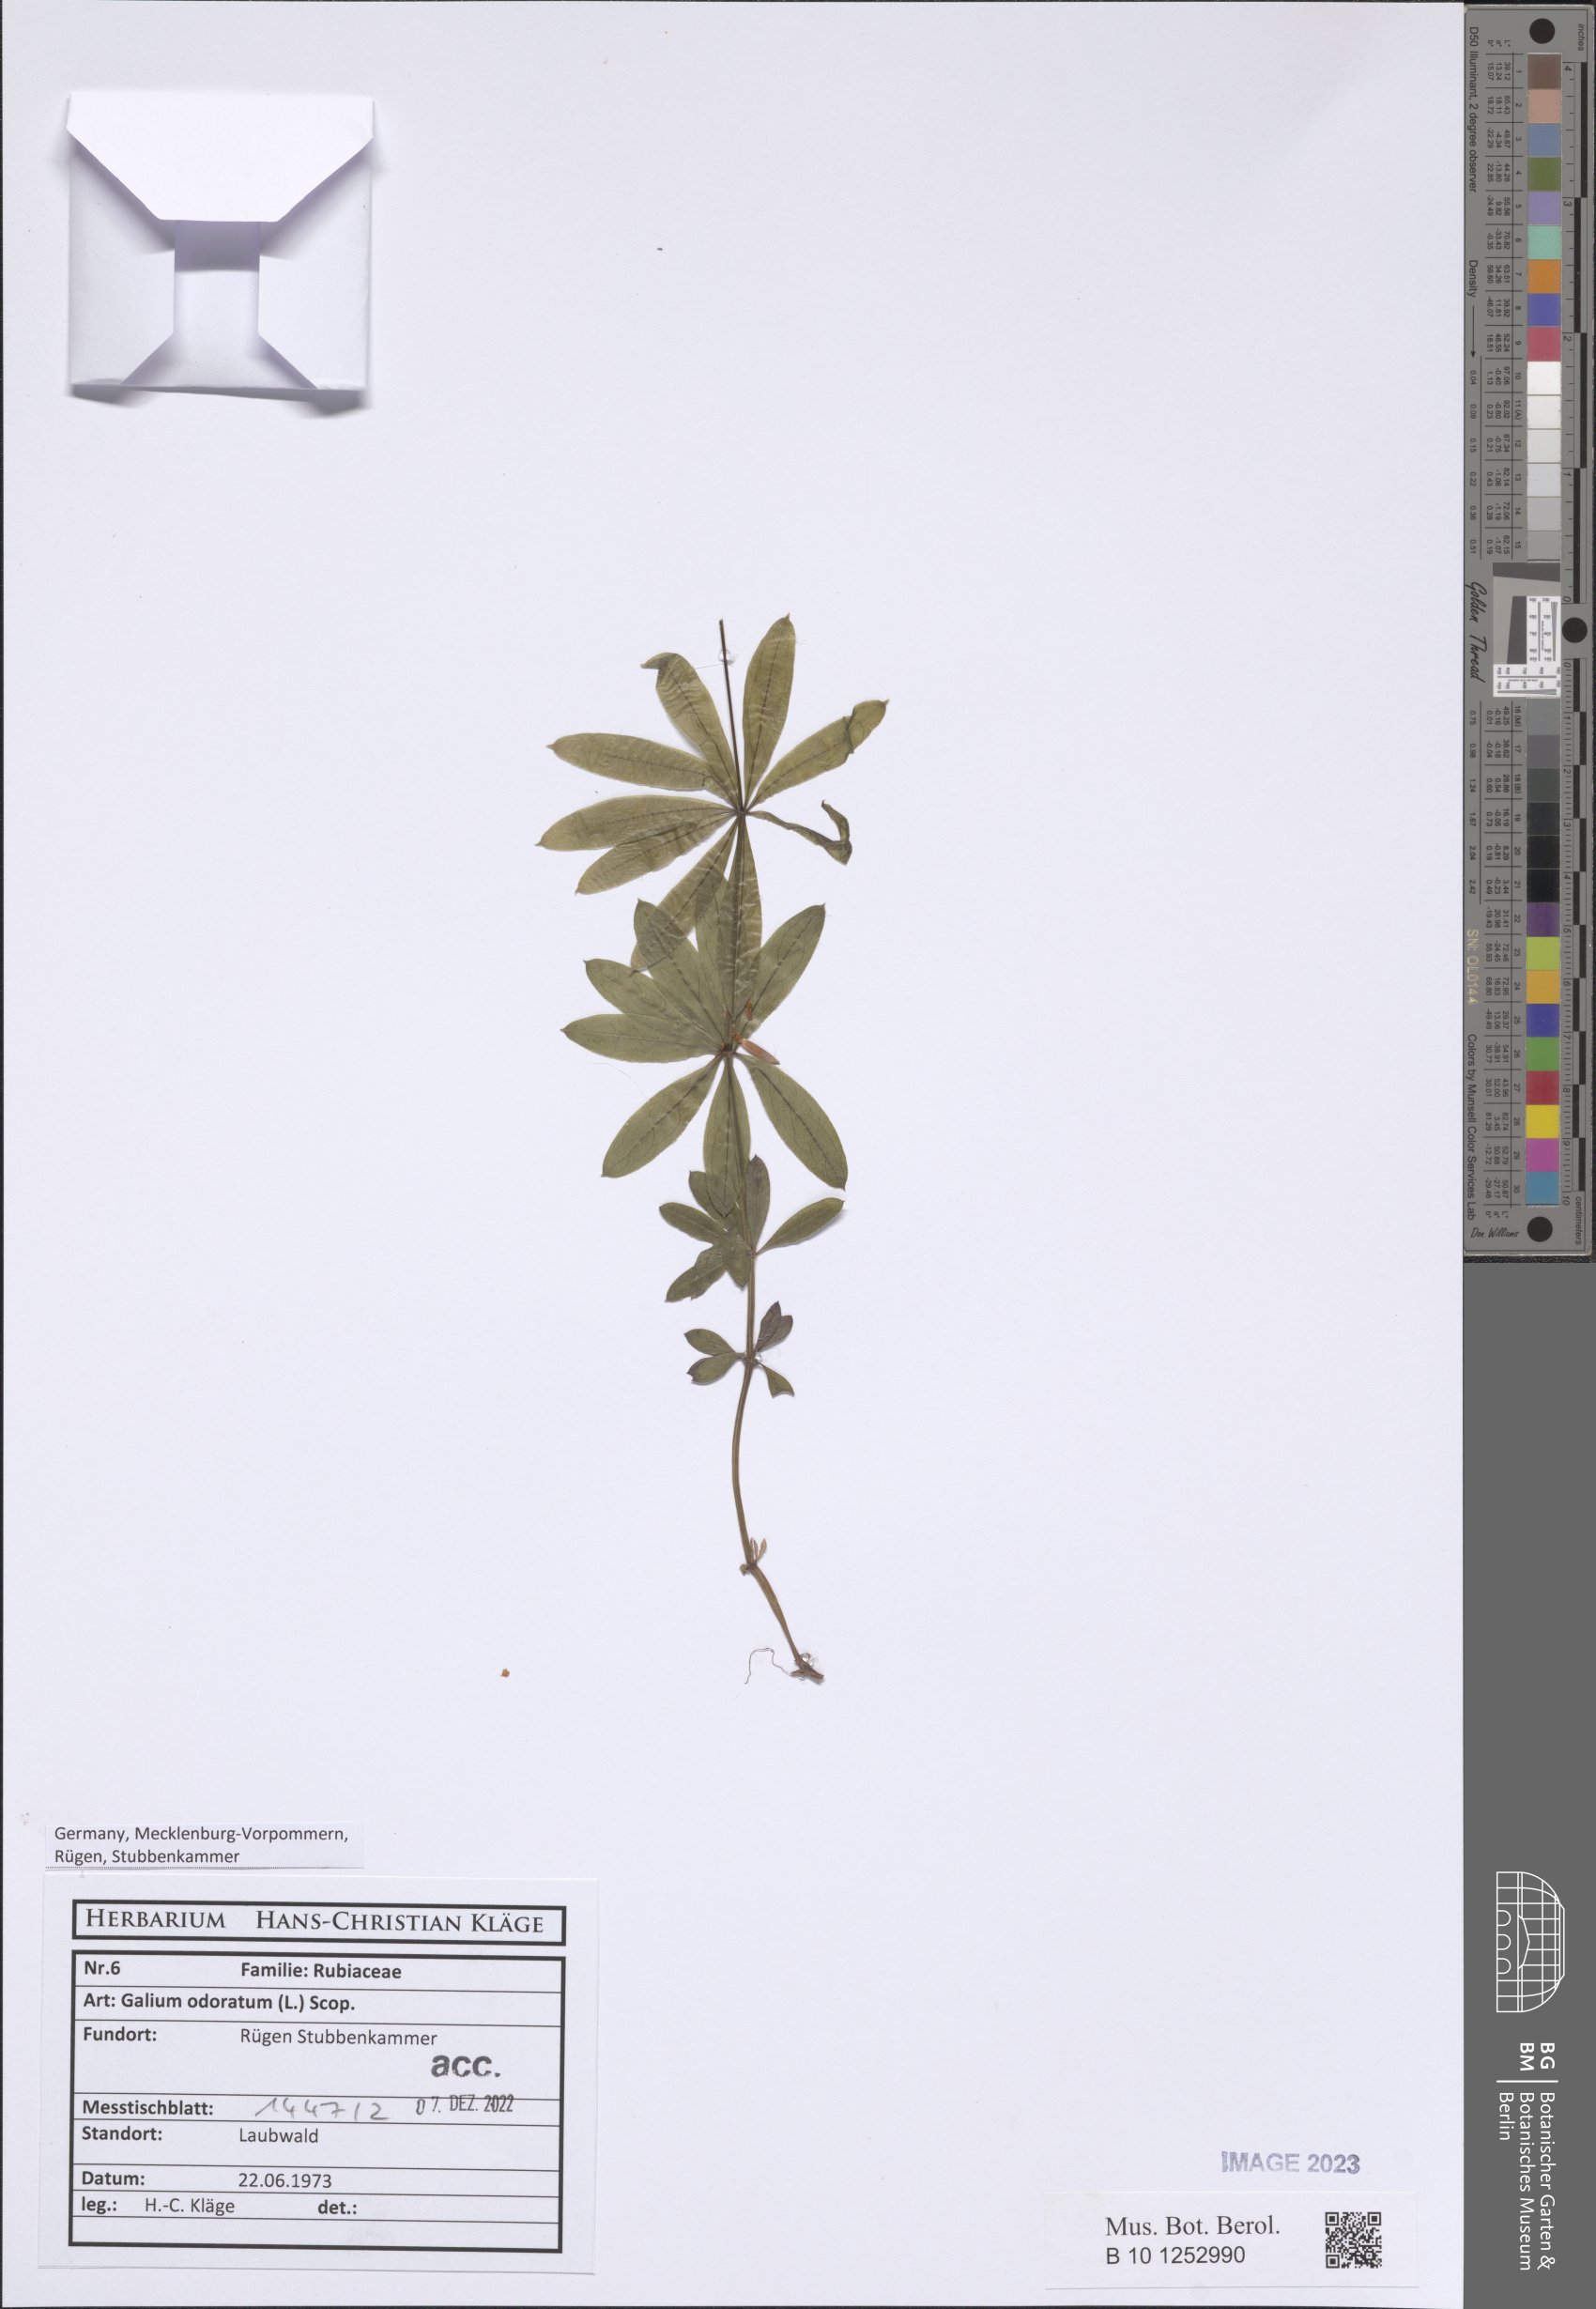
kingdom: Plantae
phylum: Tracheophyta
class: Magnoliopsida
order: Gentianales
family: Rubiaceae
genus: Galium
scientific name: Galium odoratum
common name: Sweet woodruff
